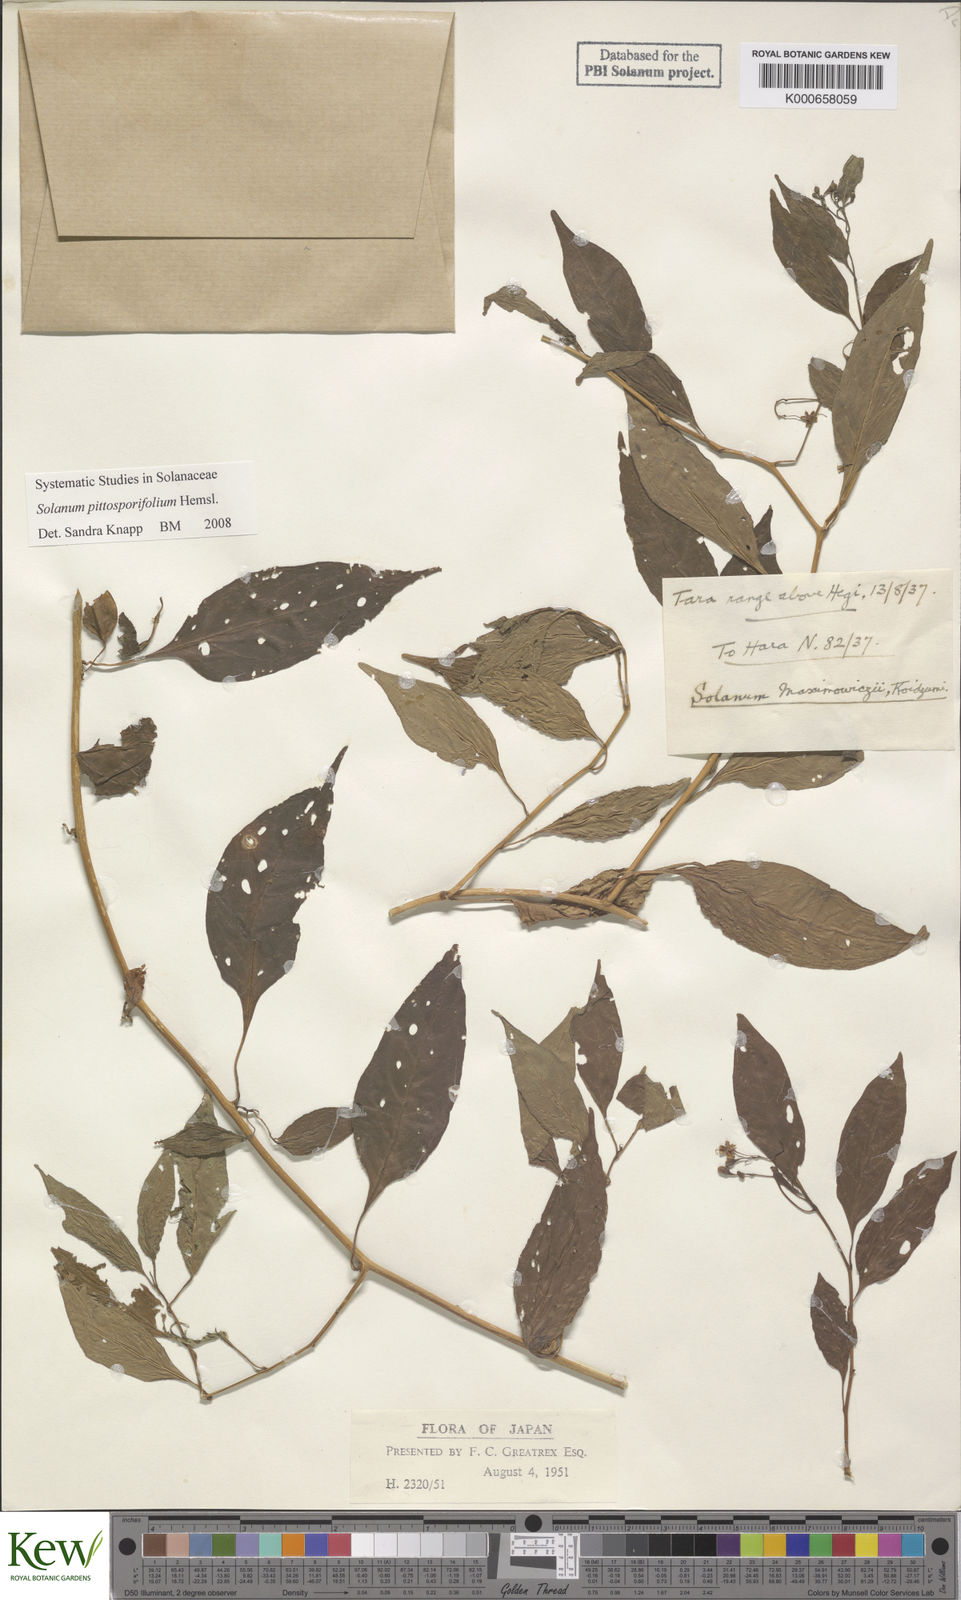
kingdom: Plantae
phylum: Tracheophyta
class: Magnoliopsida
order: Solanales
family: Solanaceae
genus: Solanum
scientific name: Solanum pittosporifolium
